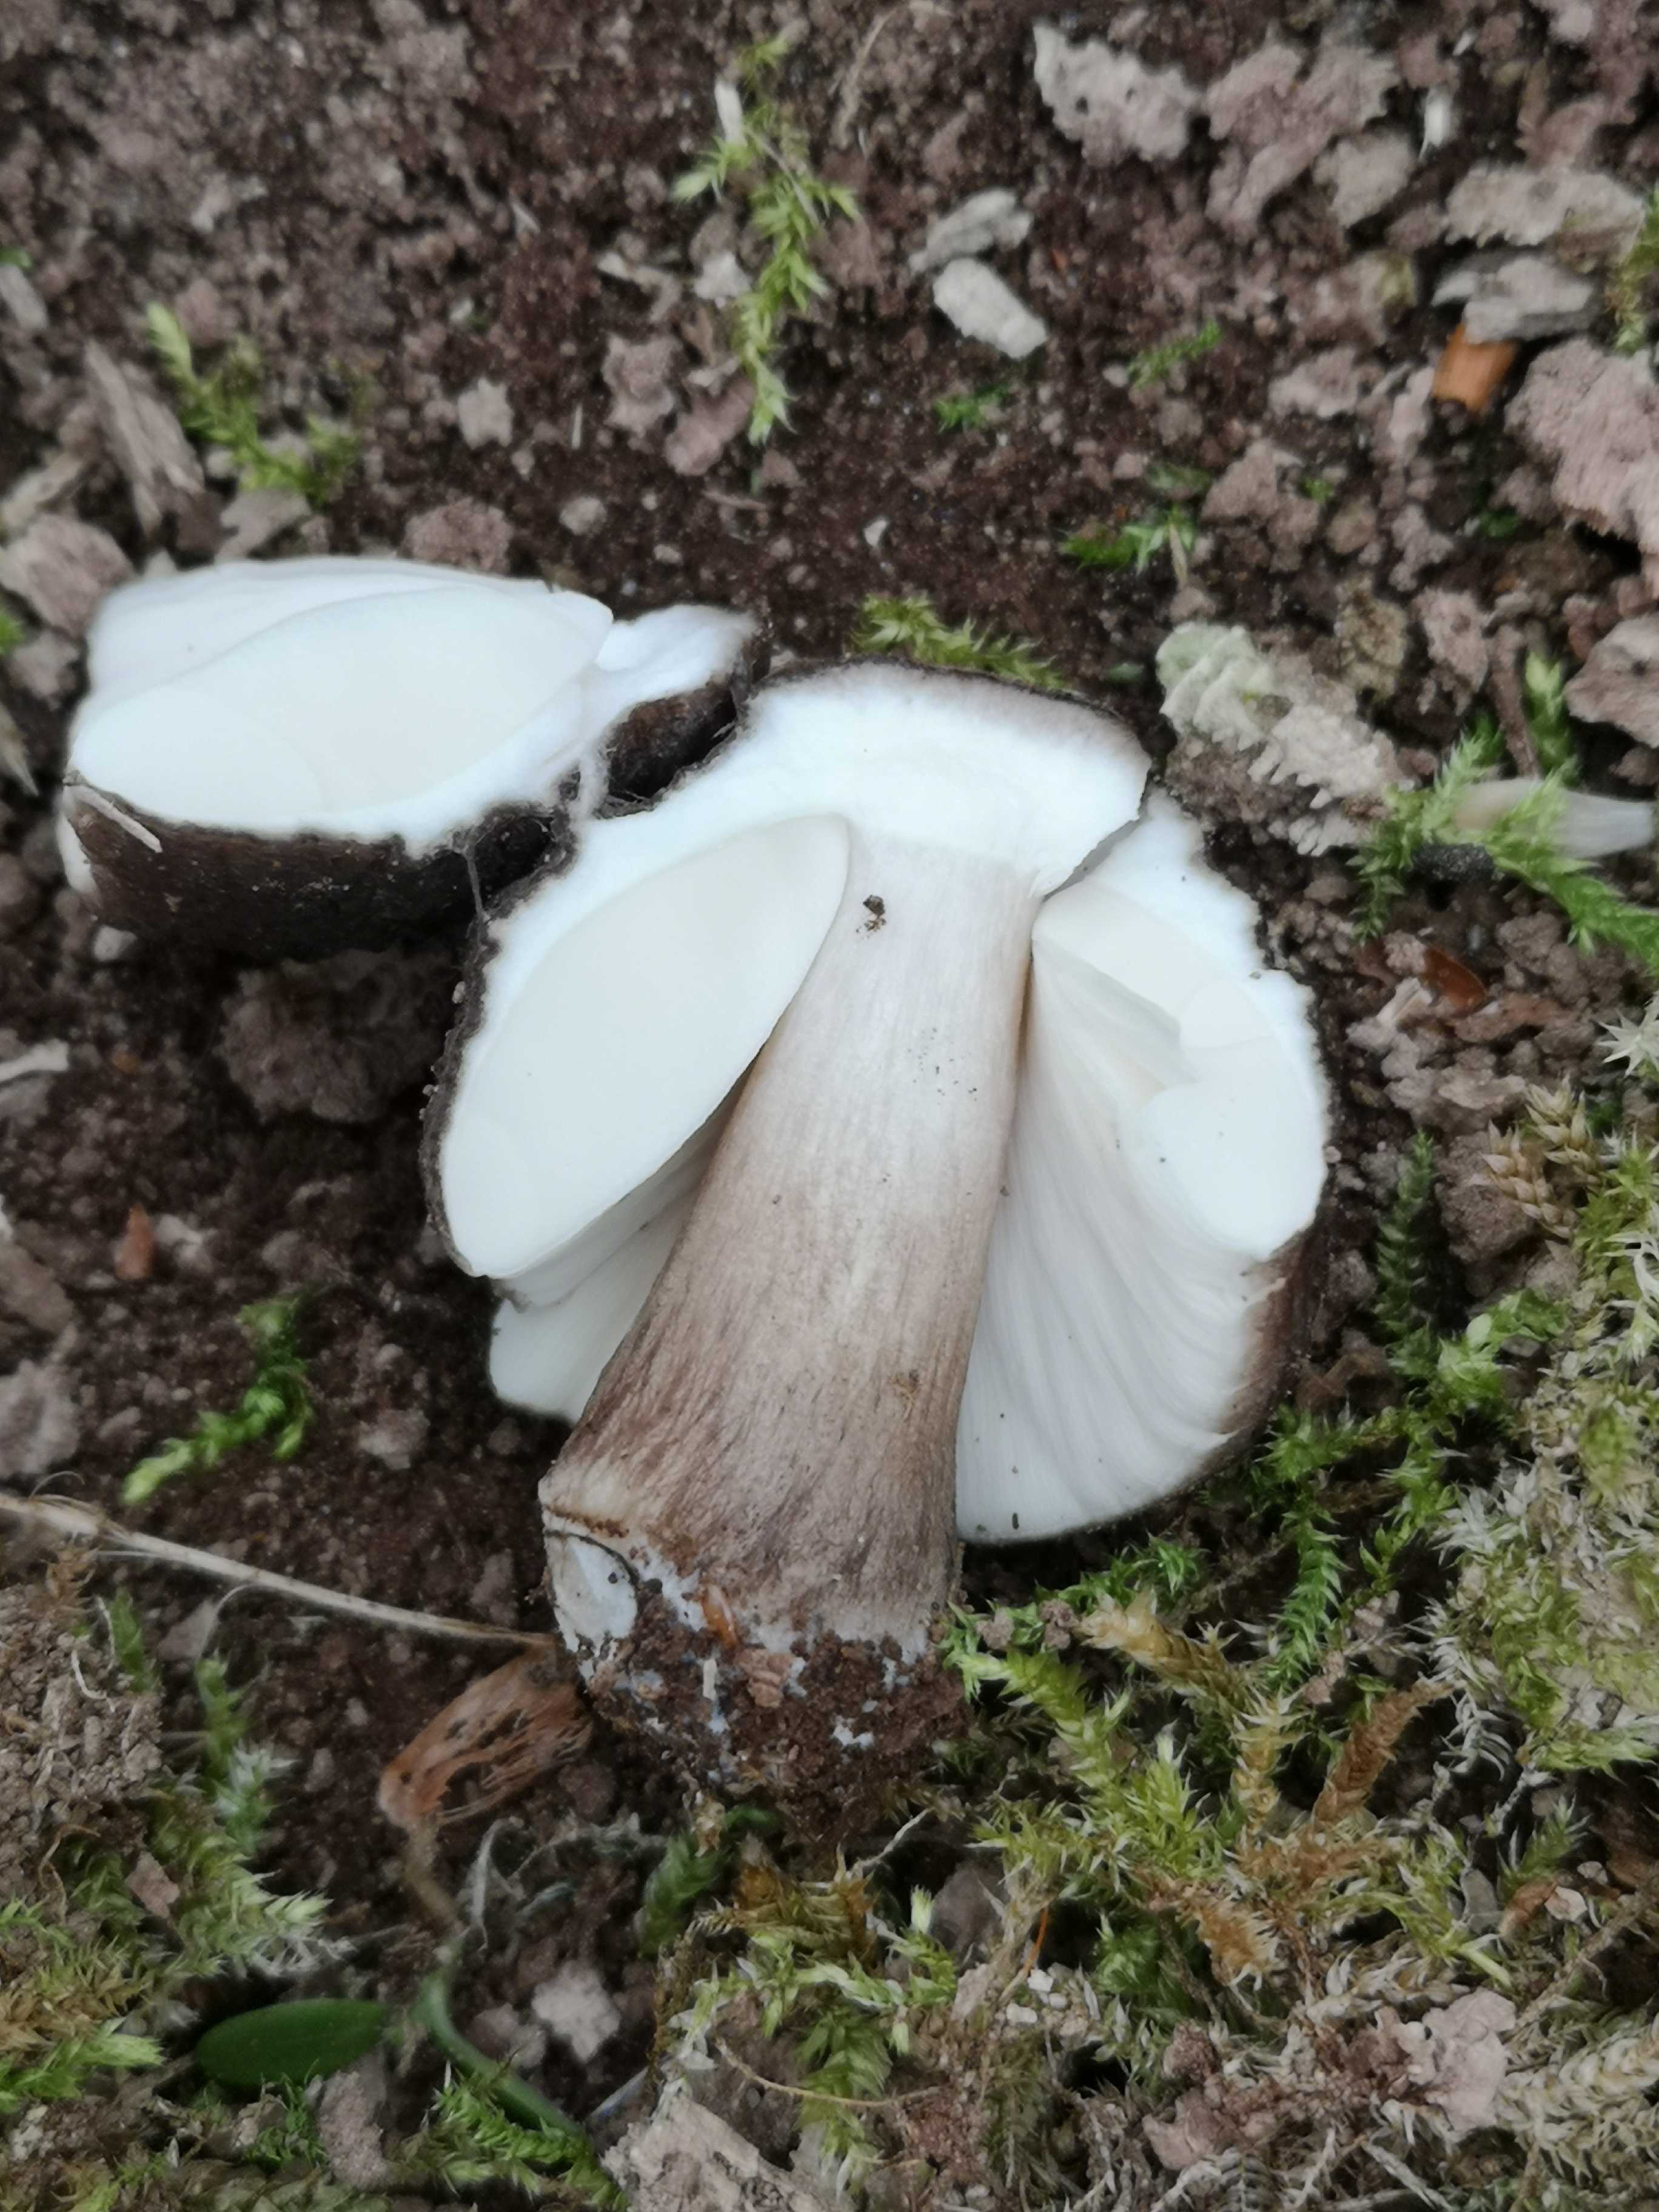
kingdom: Fungi
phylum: Basidiomycota
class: Agaricomycetes
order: Agaricales
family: Pluteaceae
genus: Pluteus
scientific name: Pluteus cervinus
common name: sodfarvet skærmhat
